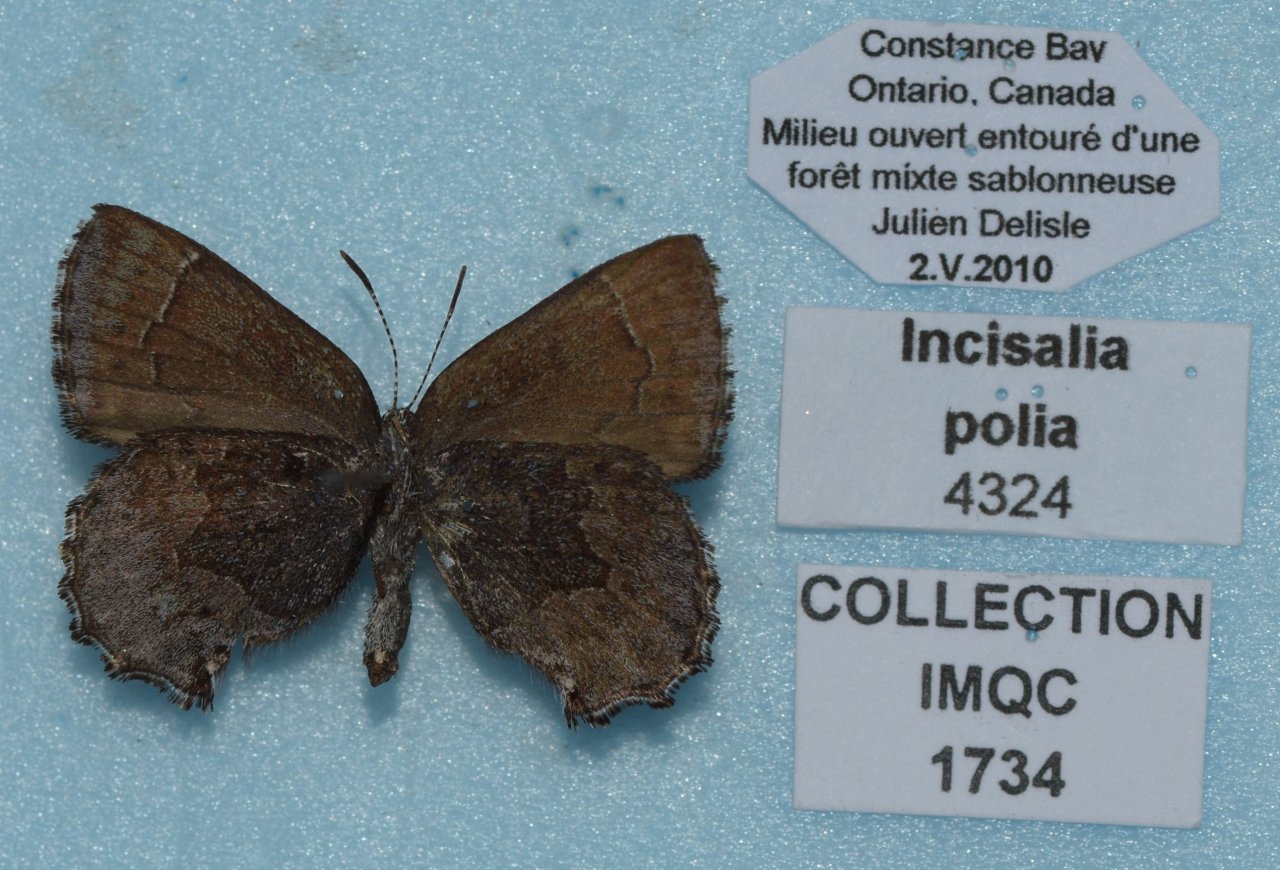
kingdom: Animalia
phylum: Arthropoda
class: Insecta
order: Lepidoptera
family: Lycaenidae
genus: Callophrys
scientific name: Callophrys polios
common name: Hoary Elfin
